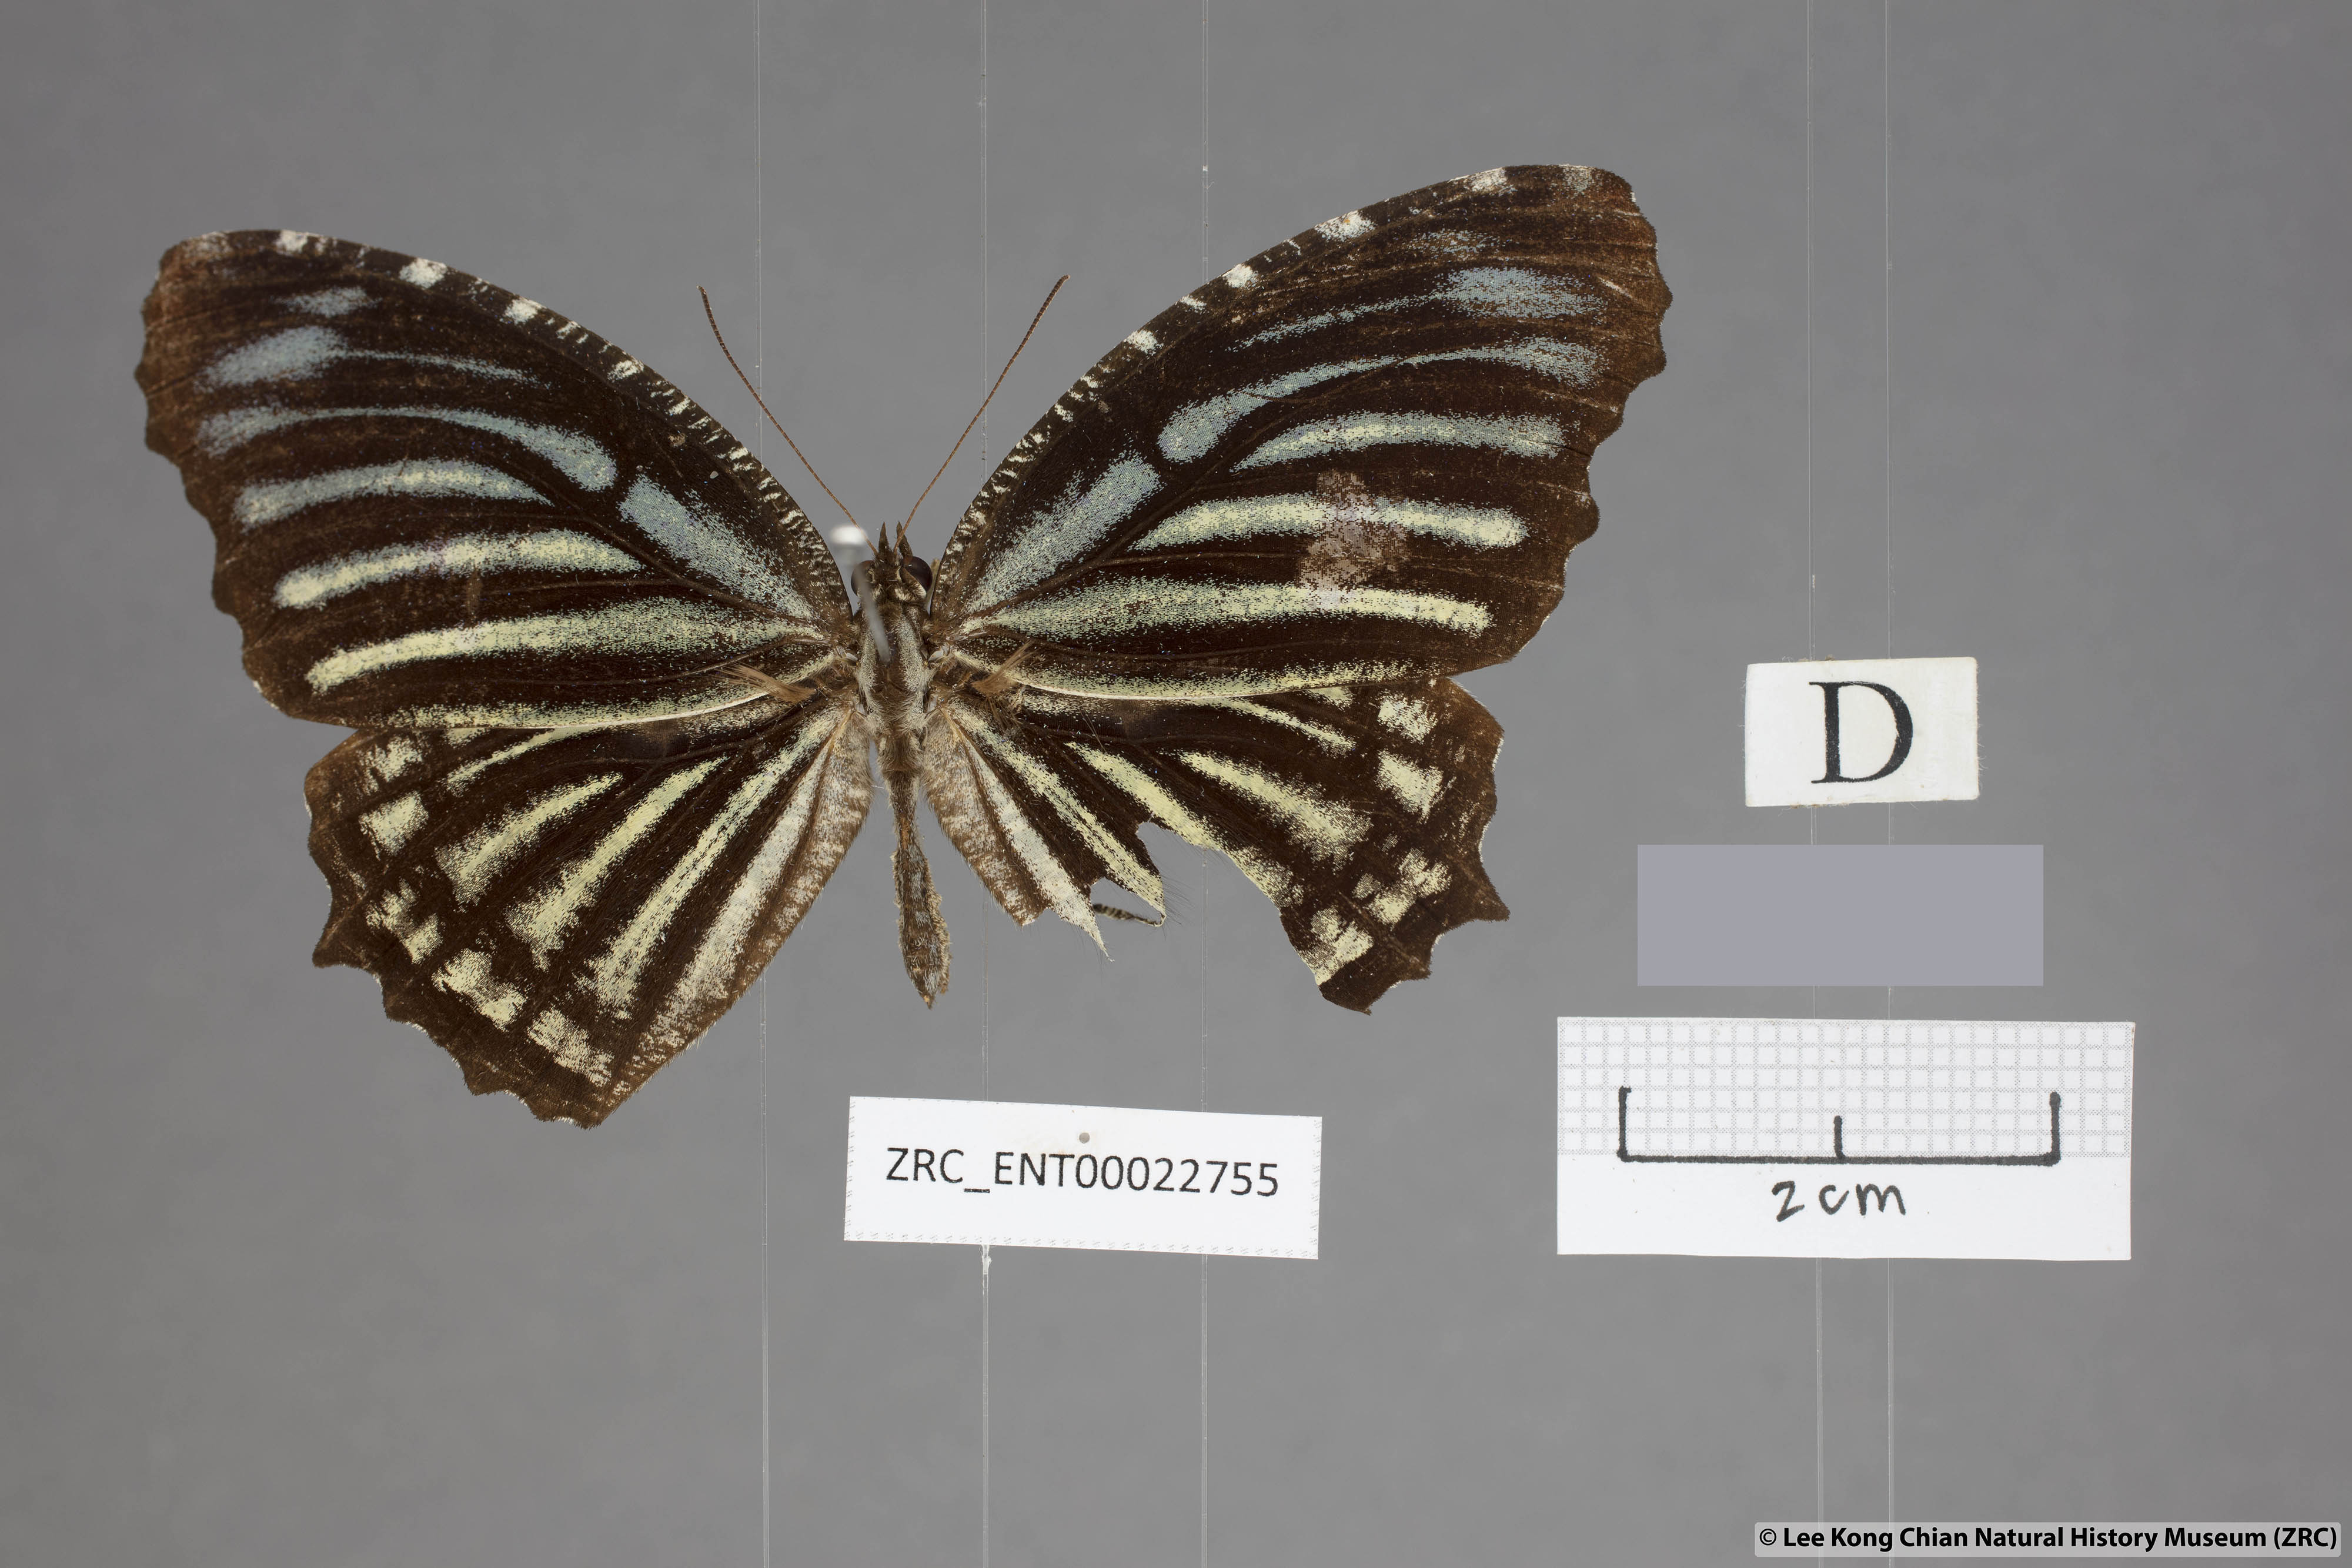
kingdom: Animalia
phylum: Arthropoda
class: Insecta
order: Lepidoptera
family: Nymphalidae
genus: Elymnias
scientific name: Elymnias nesaea
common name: Tiger palmfly
